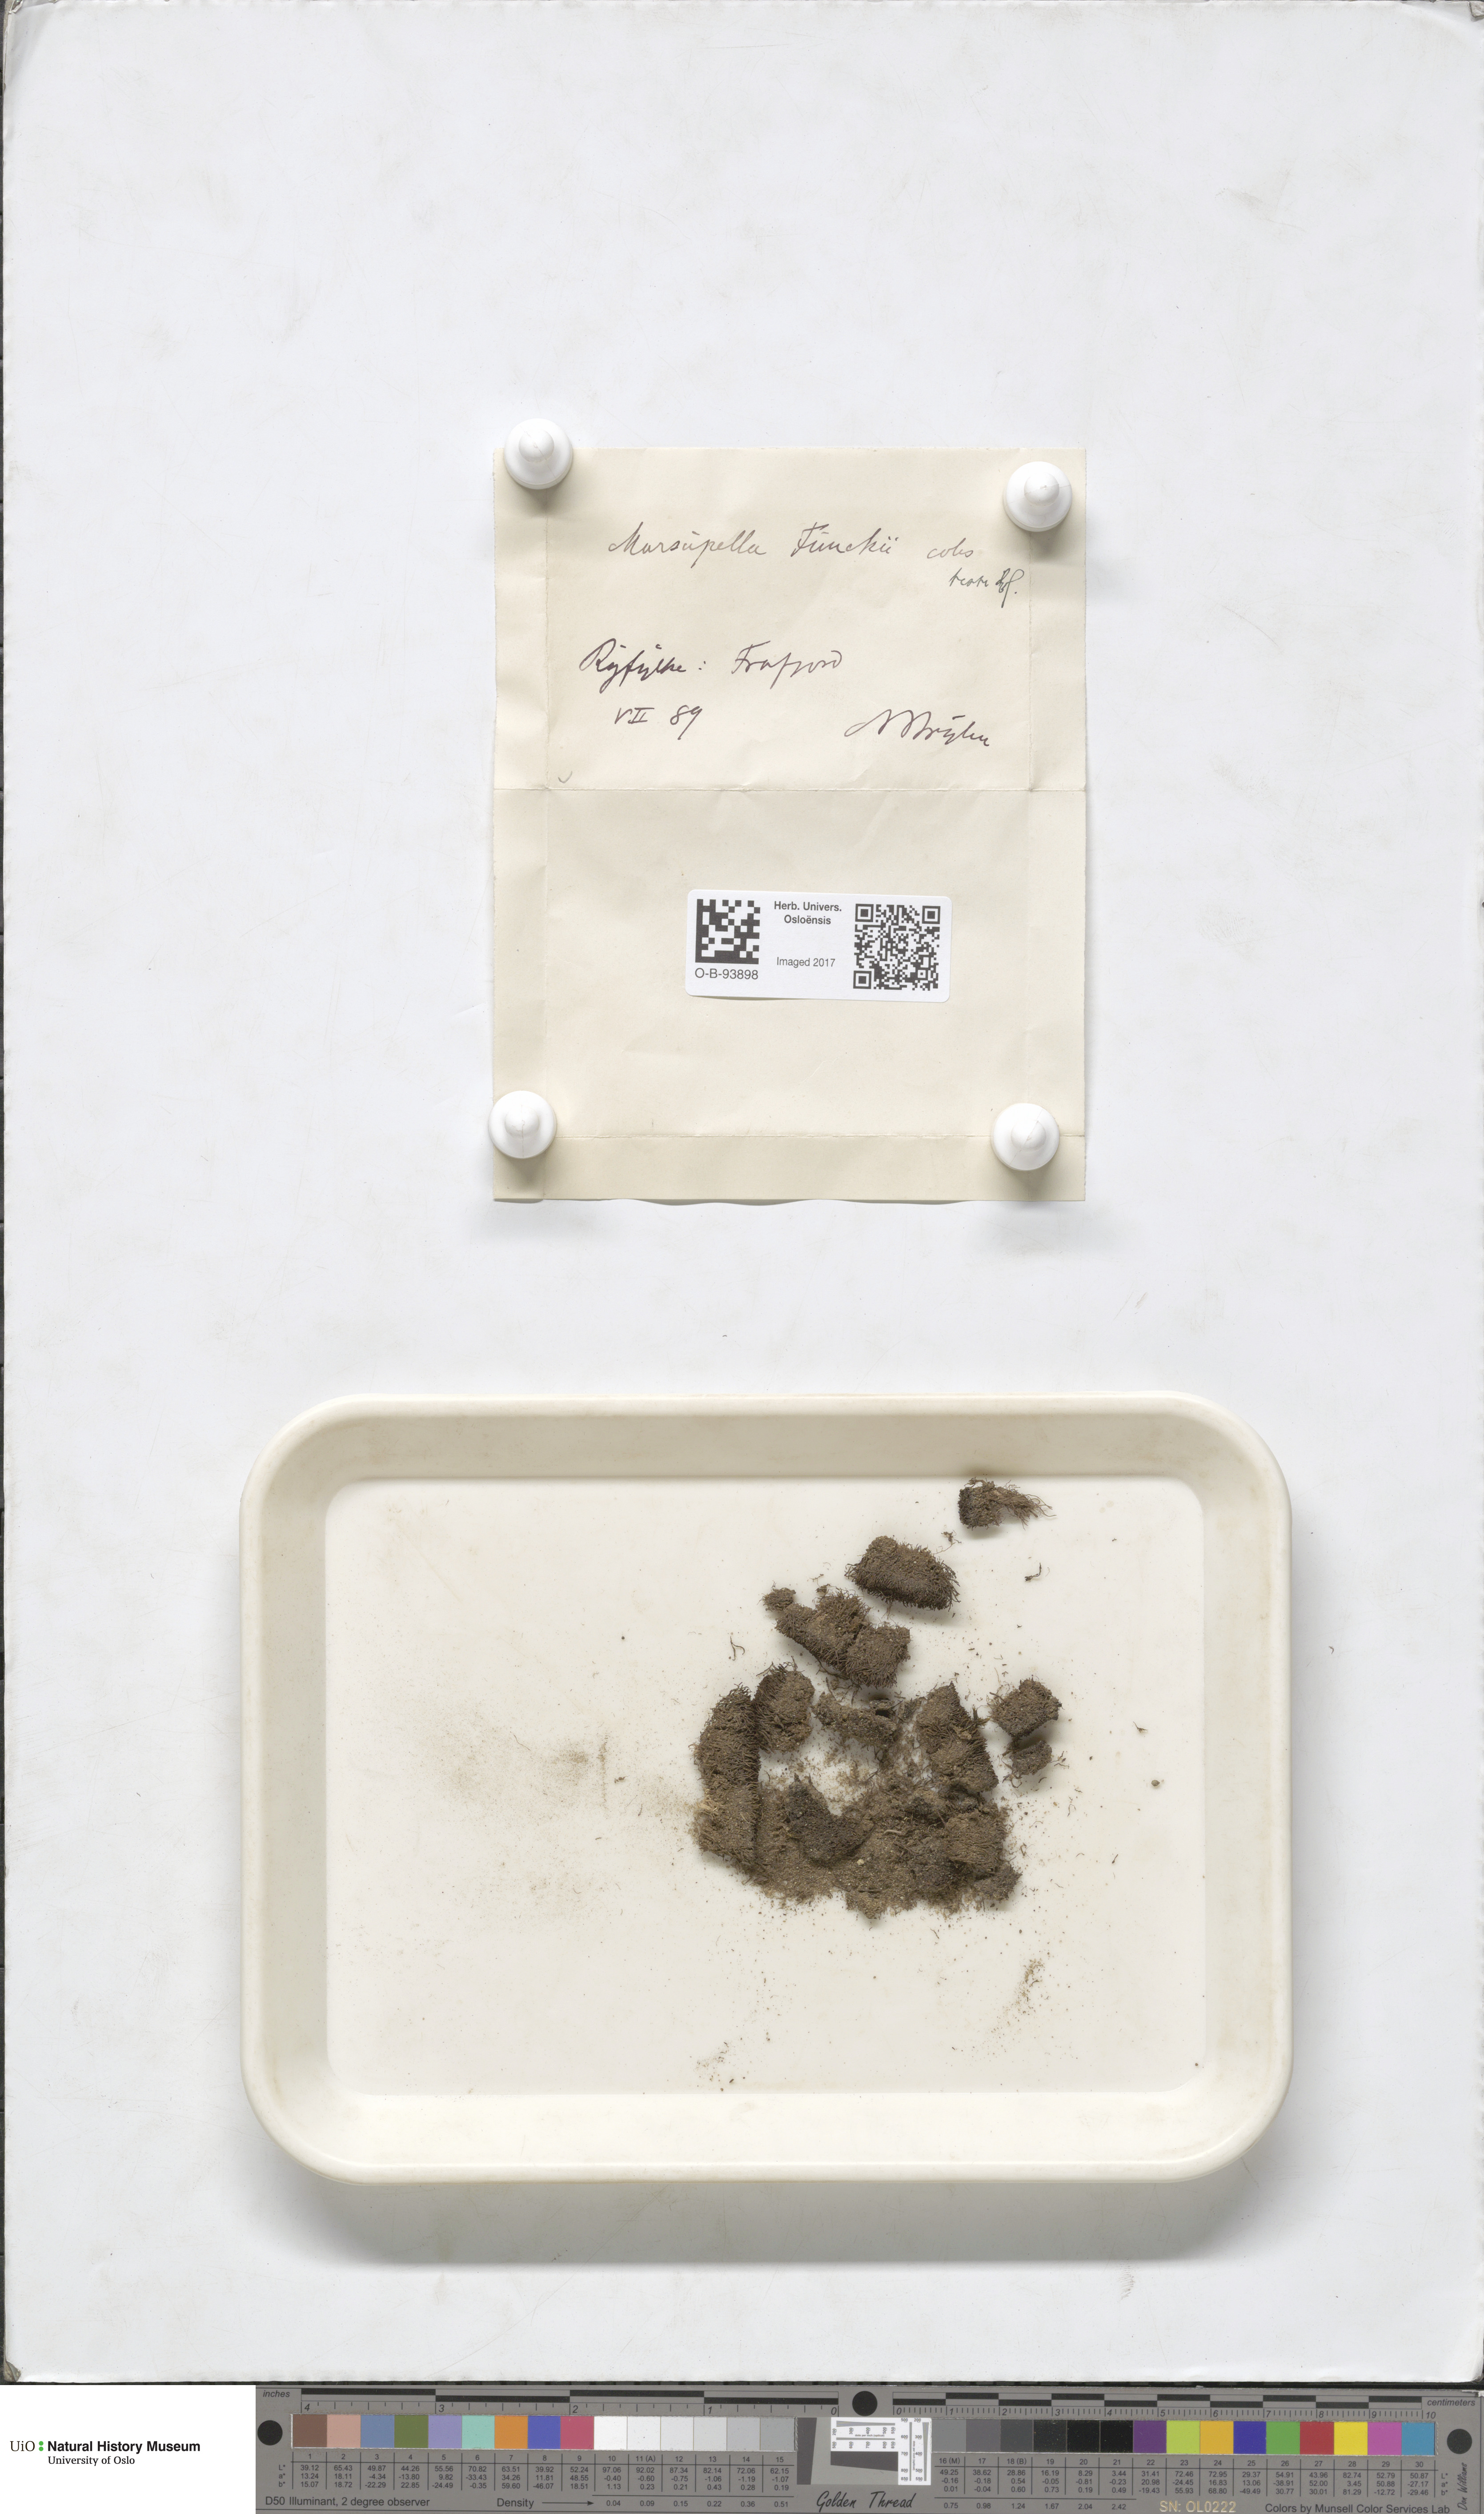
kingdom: Plantae
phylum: Marchantiophyta
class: Jungermanniopsida
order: Jungermanniales
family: Gymnomitriaceae
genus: Marsupella
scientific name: Marsupella funckii
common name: Funck's rustwort
